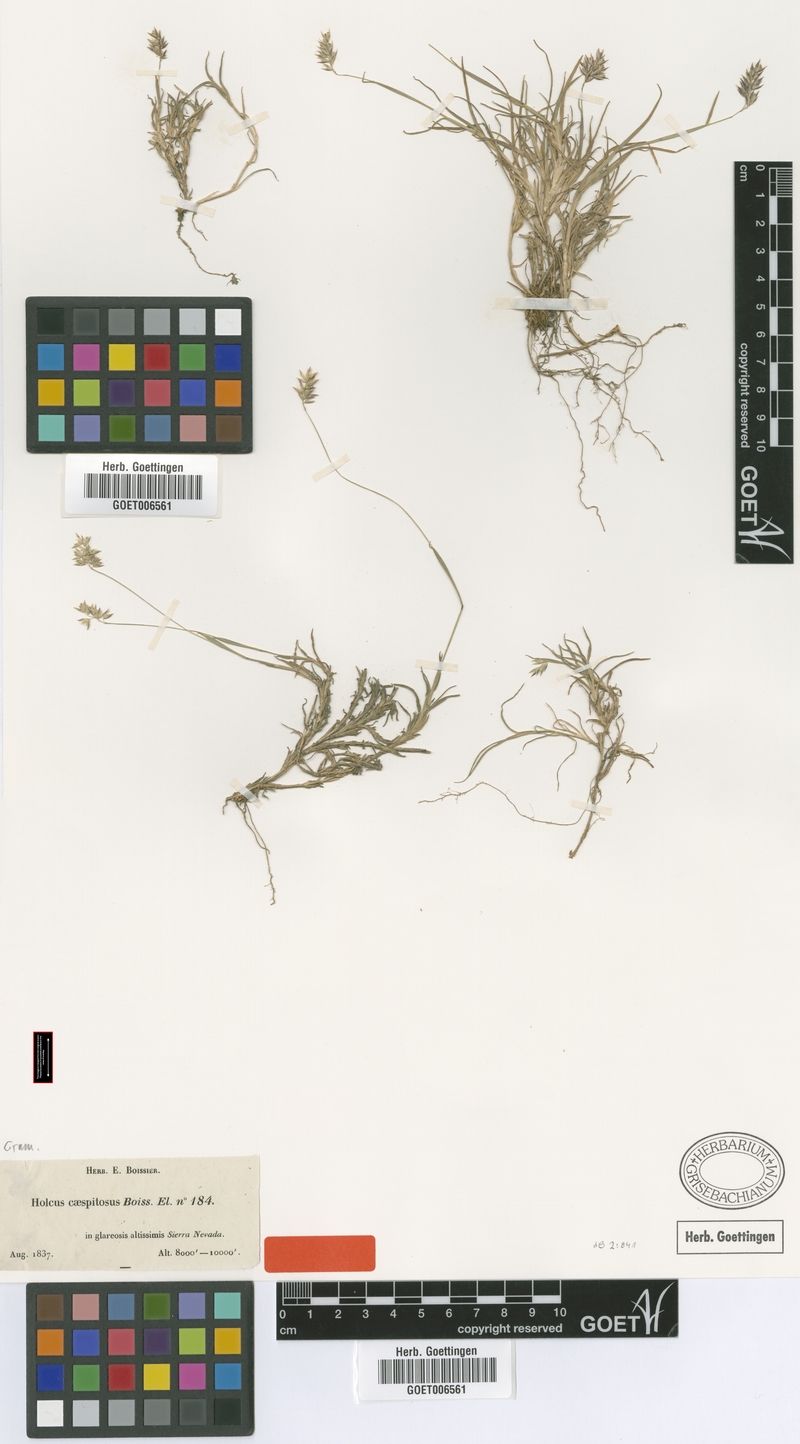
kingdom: Plantae
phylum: Tracheophyta
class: Liliopsida
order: Poales
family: Poaceae
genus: Holcus
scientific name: Holcus caespitosus
